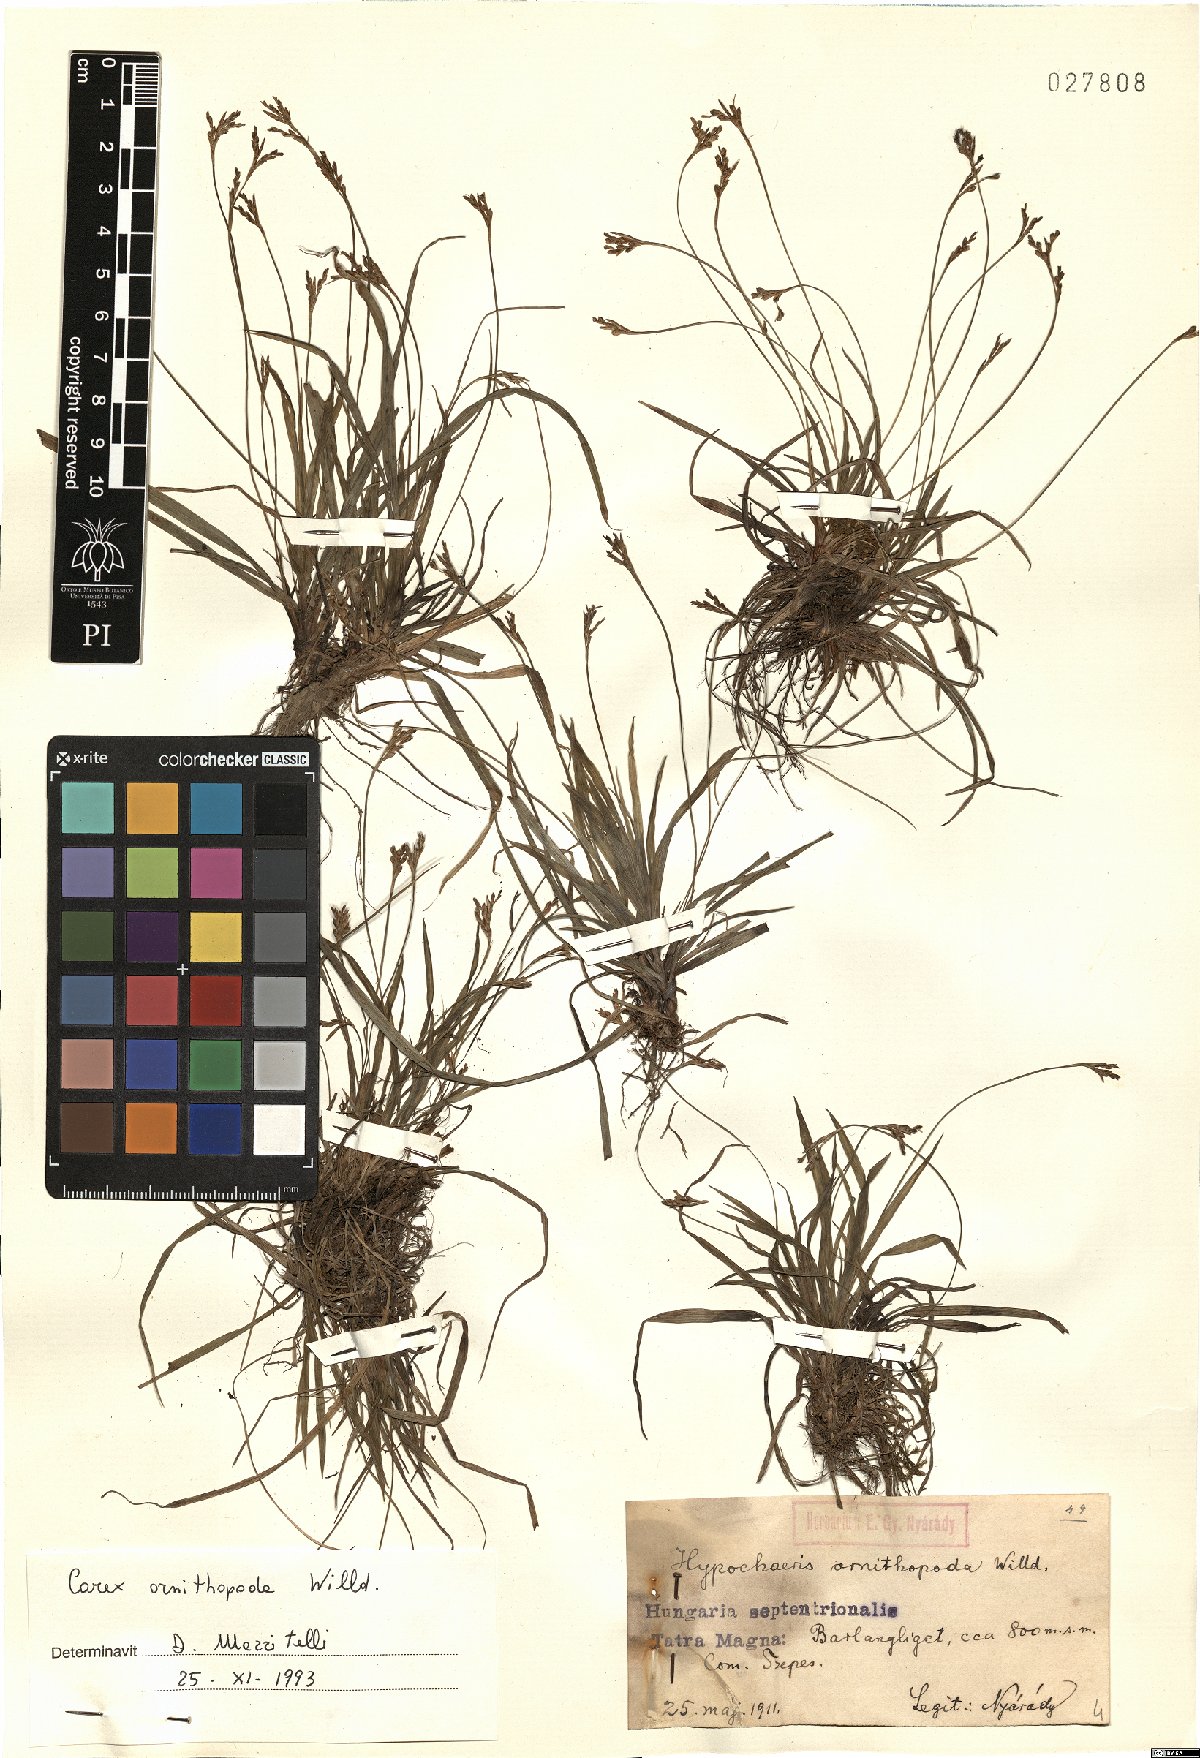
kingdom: Plantae
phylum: Tracheophyta
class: Liliopsida
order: Poales
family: Cyperaceae
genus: Carex
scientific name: Carex ornithopoda
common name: Bird's-foot sedge
